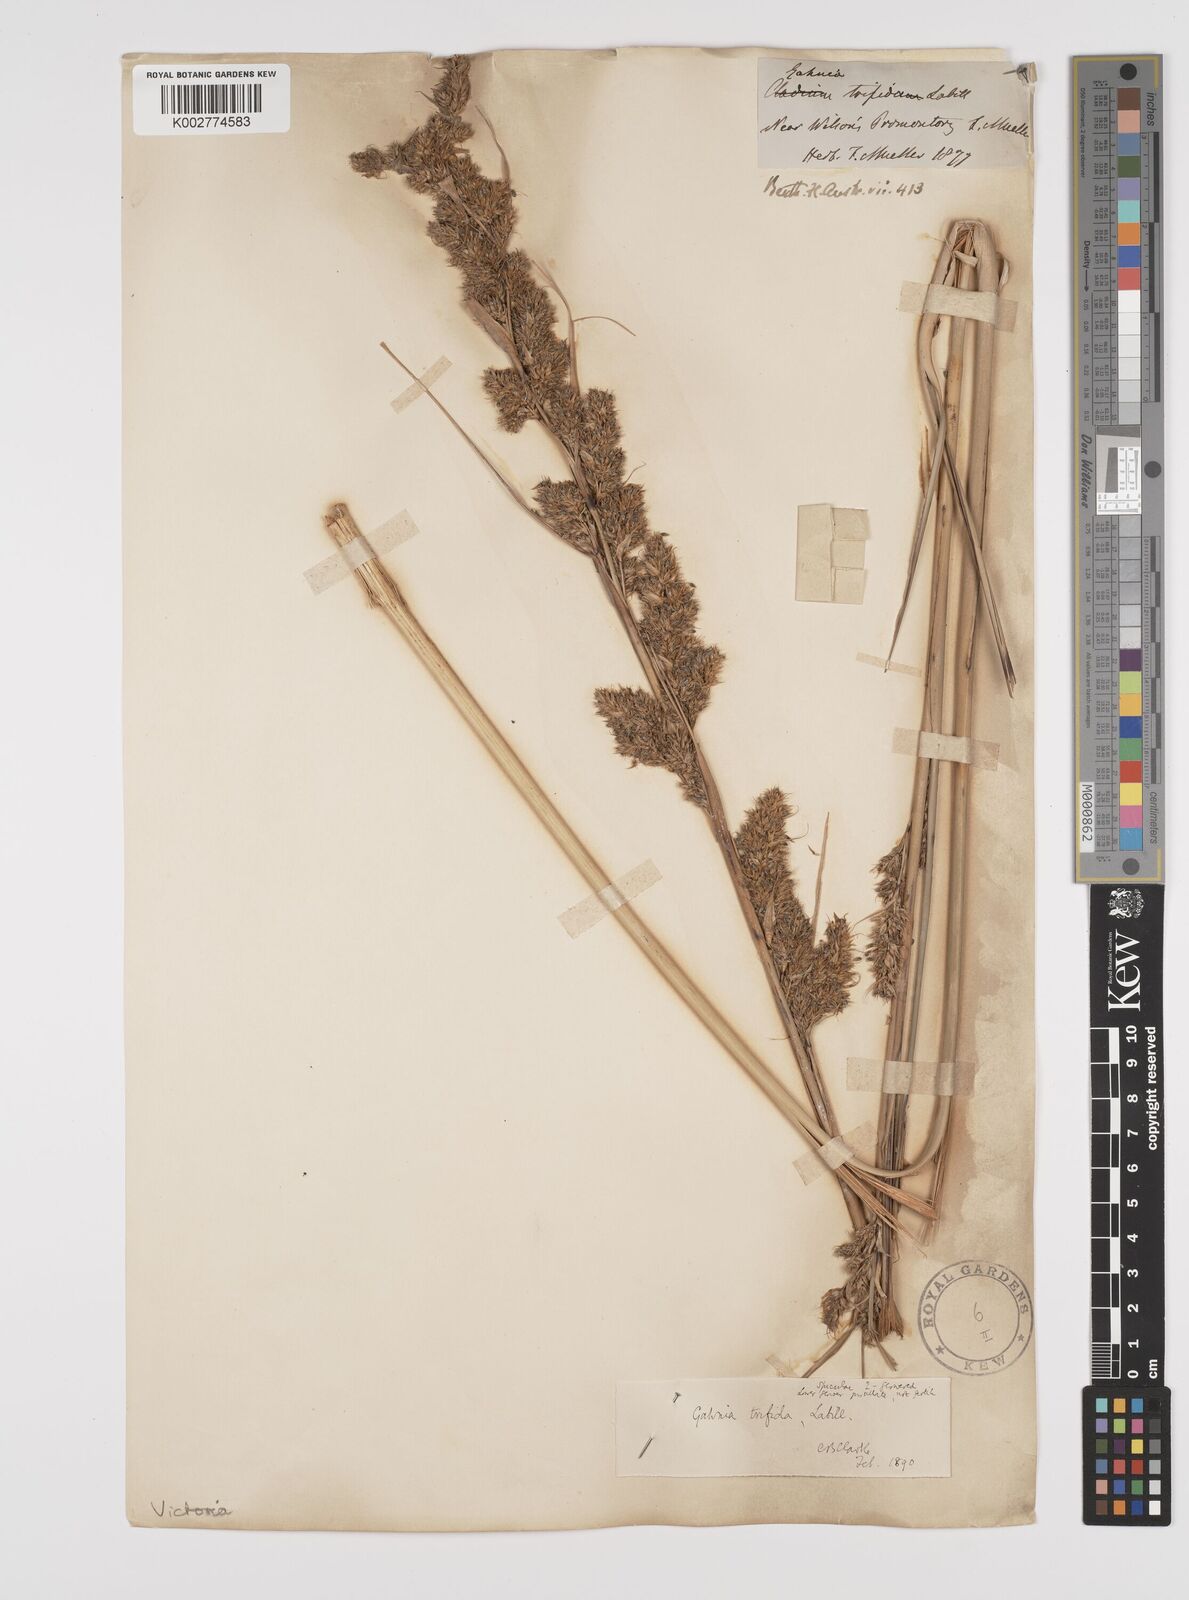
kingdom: Plantae
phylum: Tracheophyta
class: Liliopsida
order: Poales
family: Cyperaceae
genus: Gahnia
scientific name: Gahnia trifida
